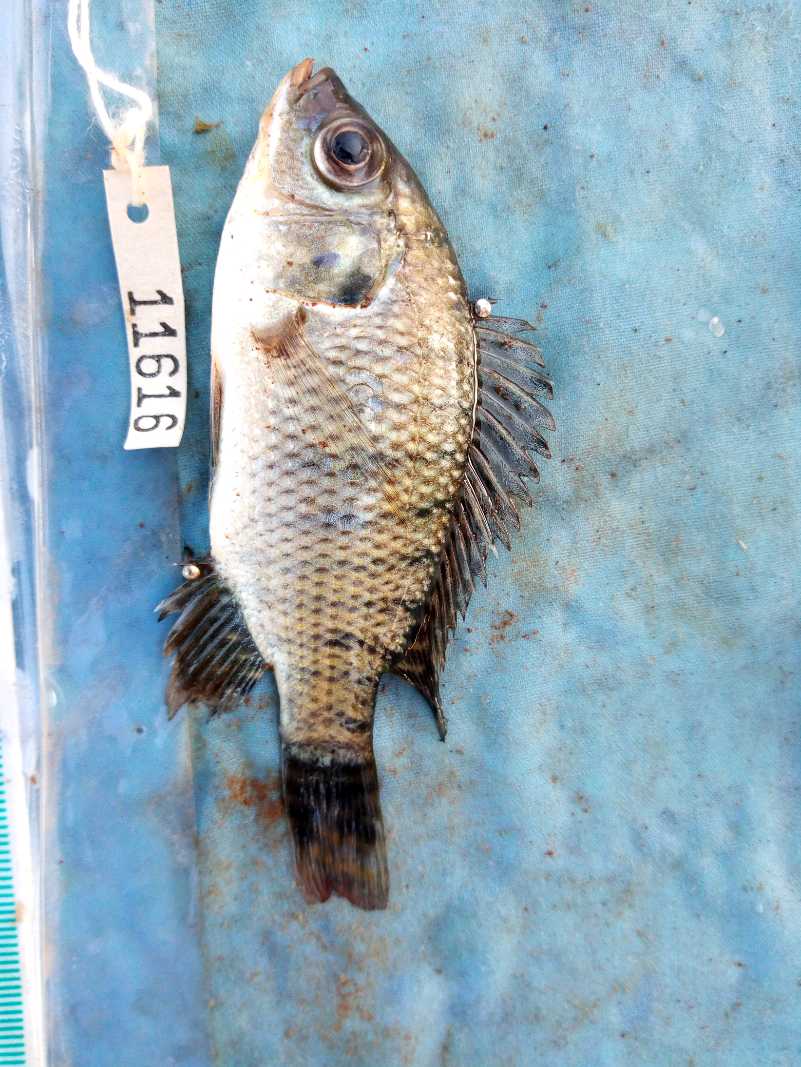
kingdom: Animalia
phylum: Chordata
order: Perciformes
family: Cichlidae
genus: Oreochromis
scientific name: Oreochromis spilurus
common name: Sabaki tilapia
